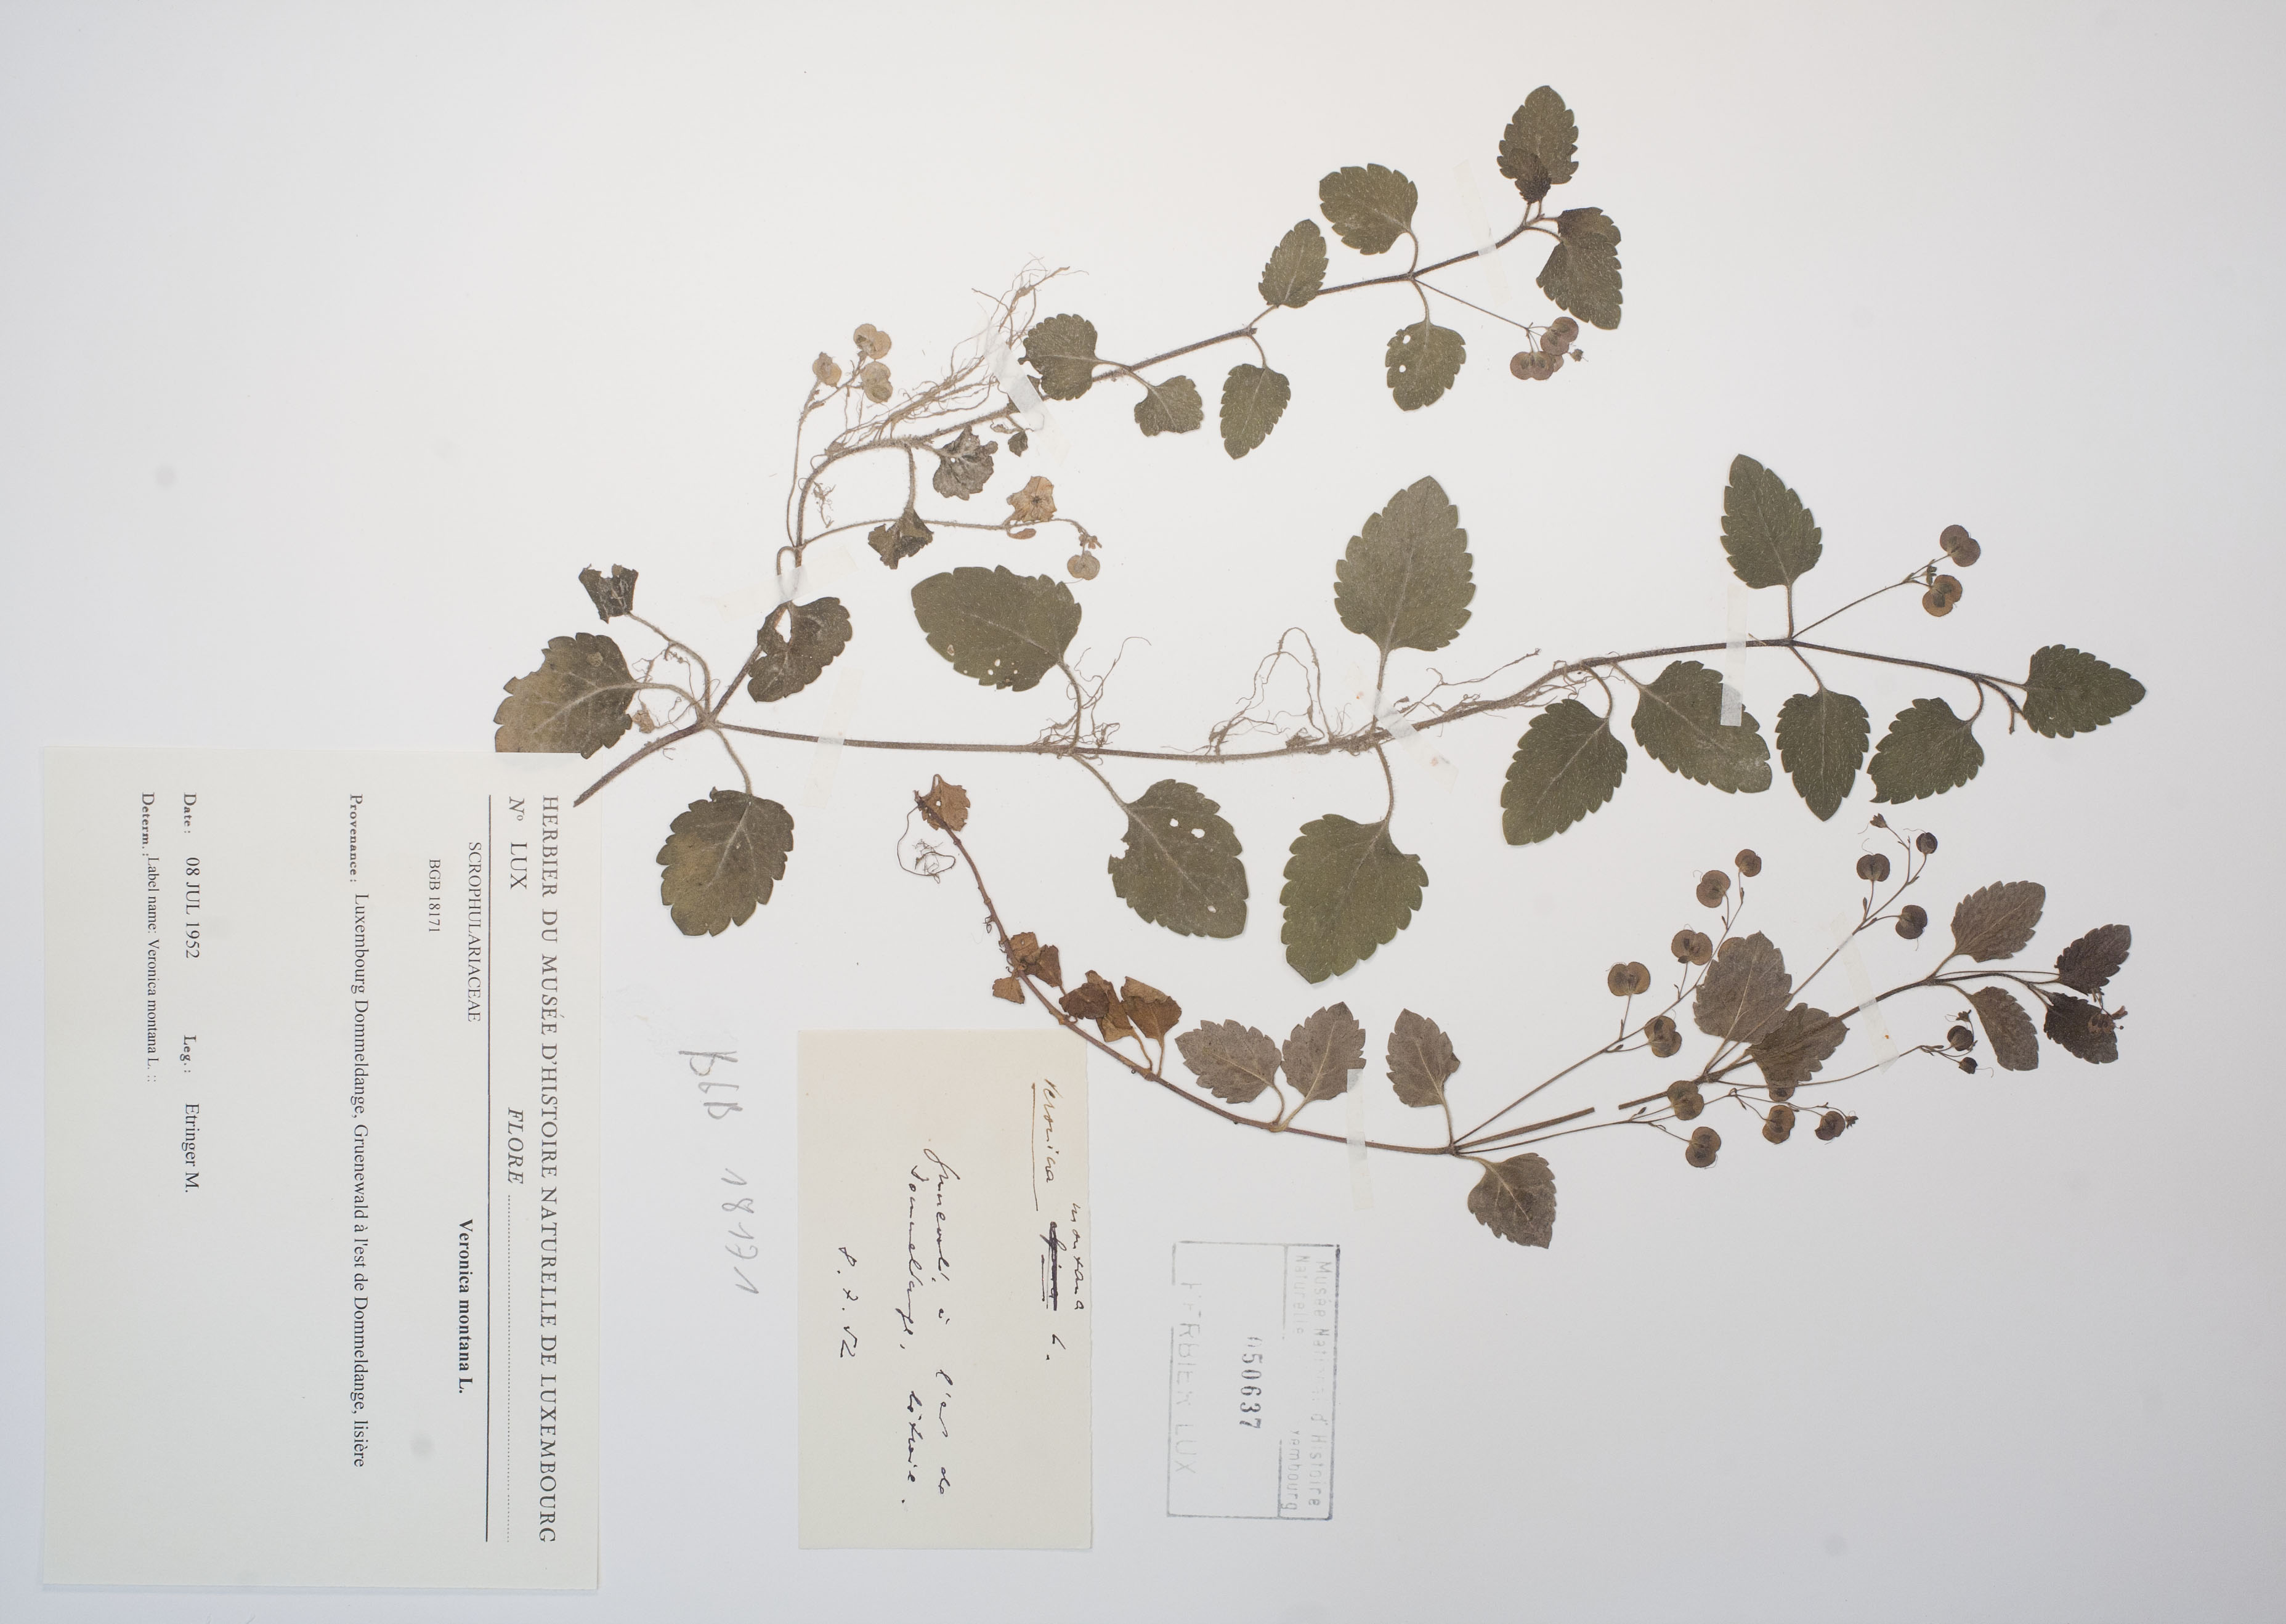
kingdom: Plantae
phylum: Tracheophyta
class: Magnoliopsida
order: Lamiales
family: Plantaginaceae
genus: Veronica
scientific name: Veronica montana
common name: Wood speedwell
